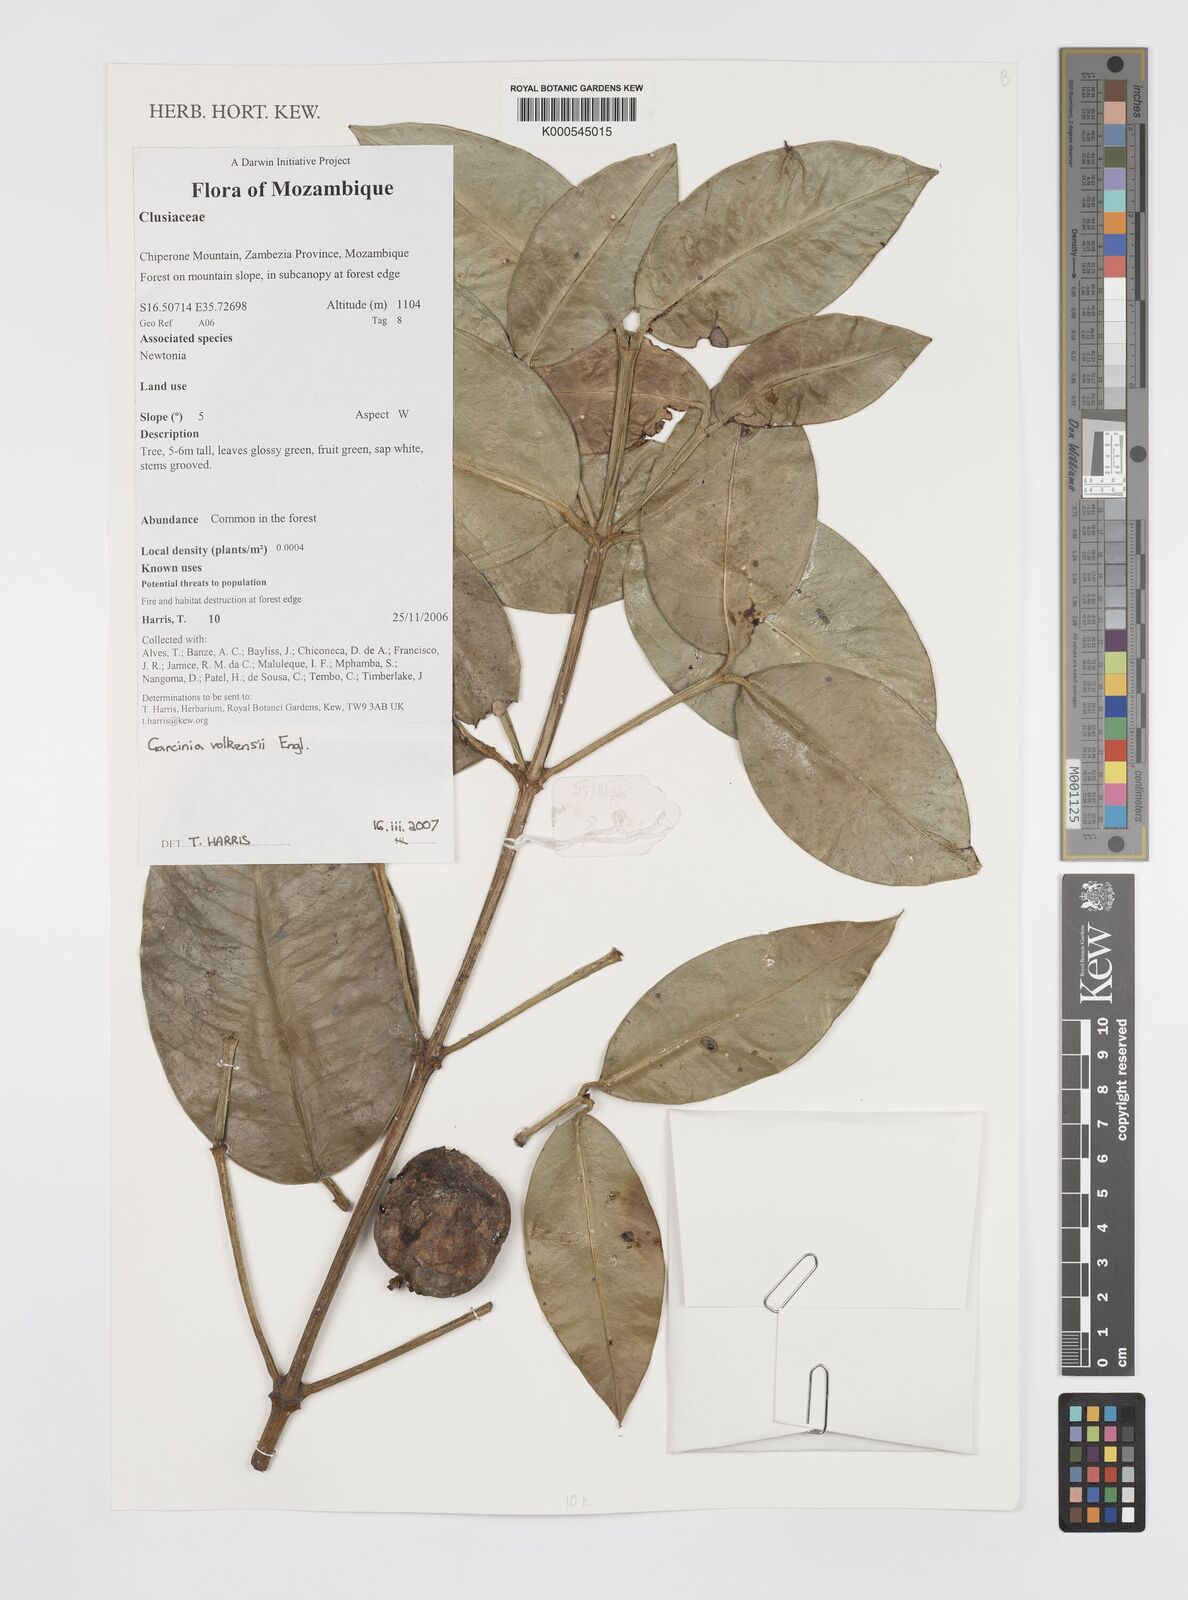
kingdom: Plantae
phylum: Tracheophyta
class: Magnoliopsida
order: Malpighiales
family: Clusiaceae
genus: Garcinia
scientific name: Garcinia volkensii
